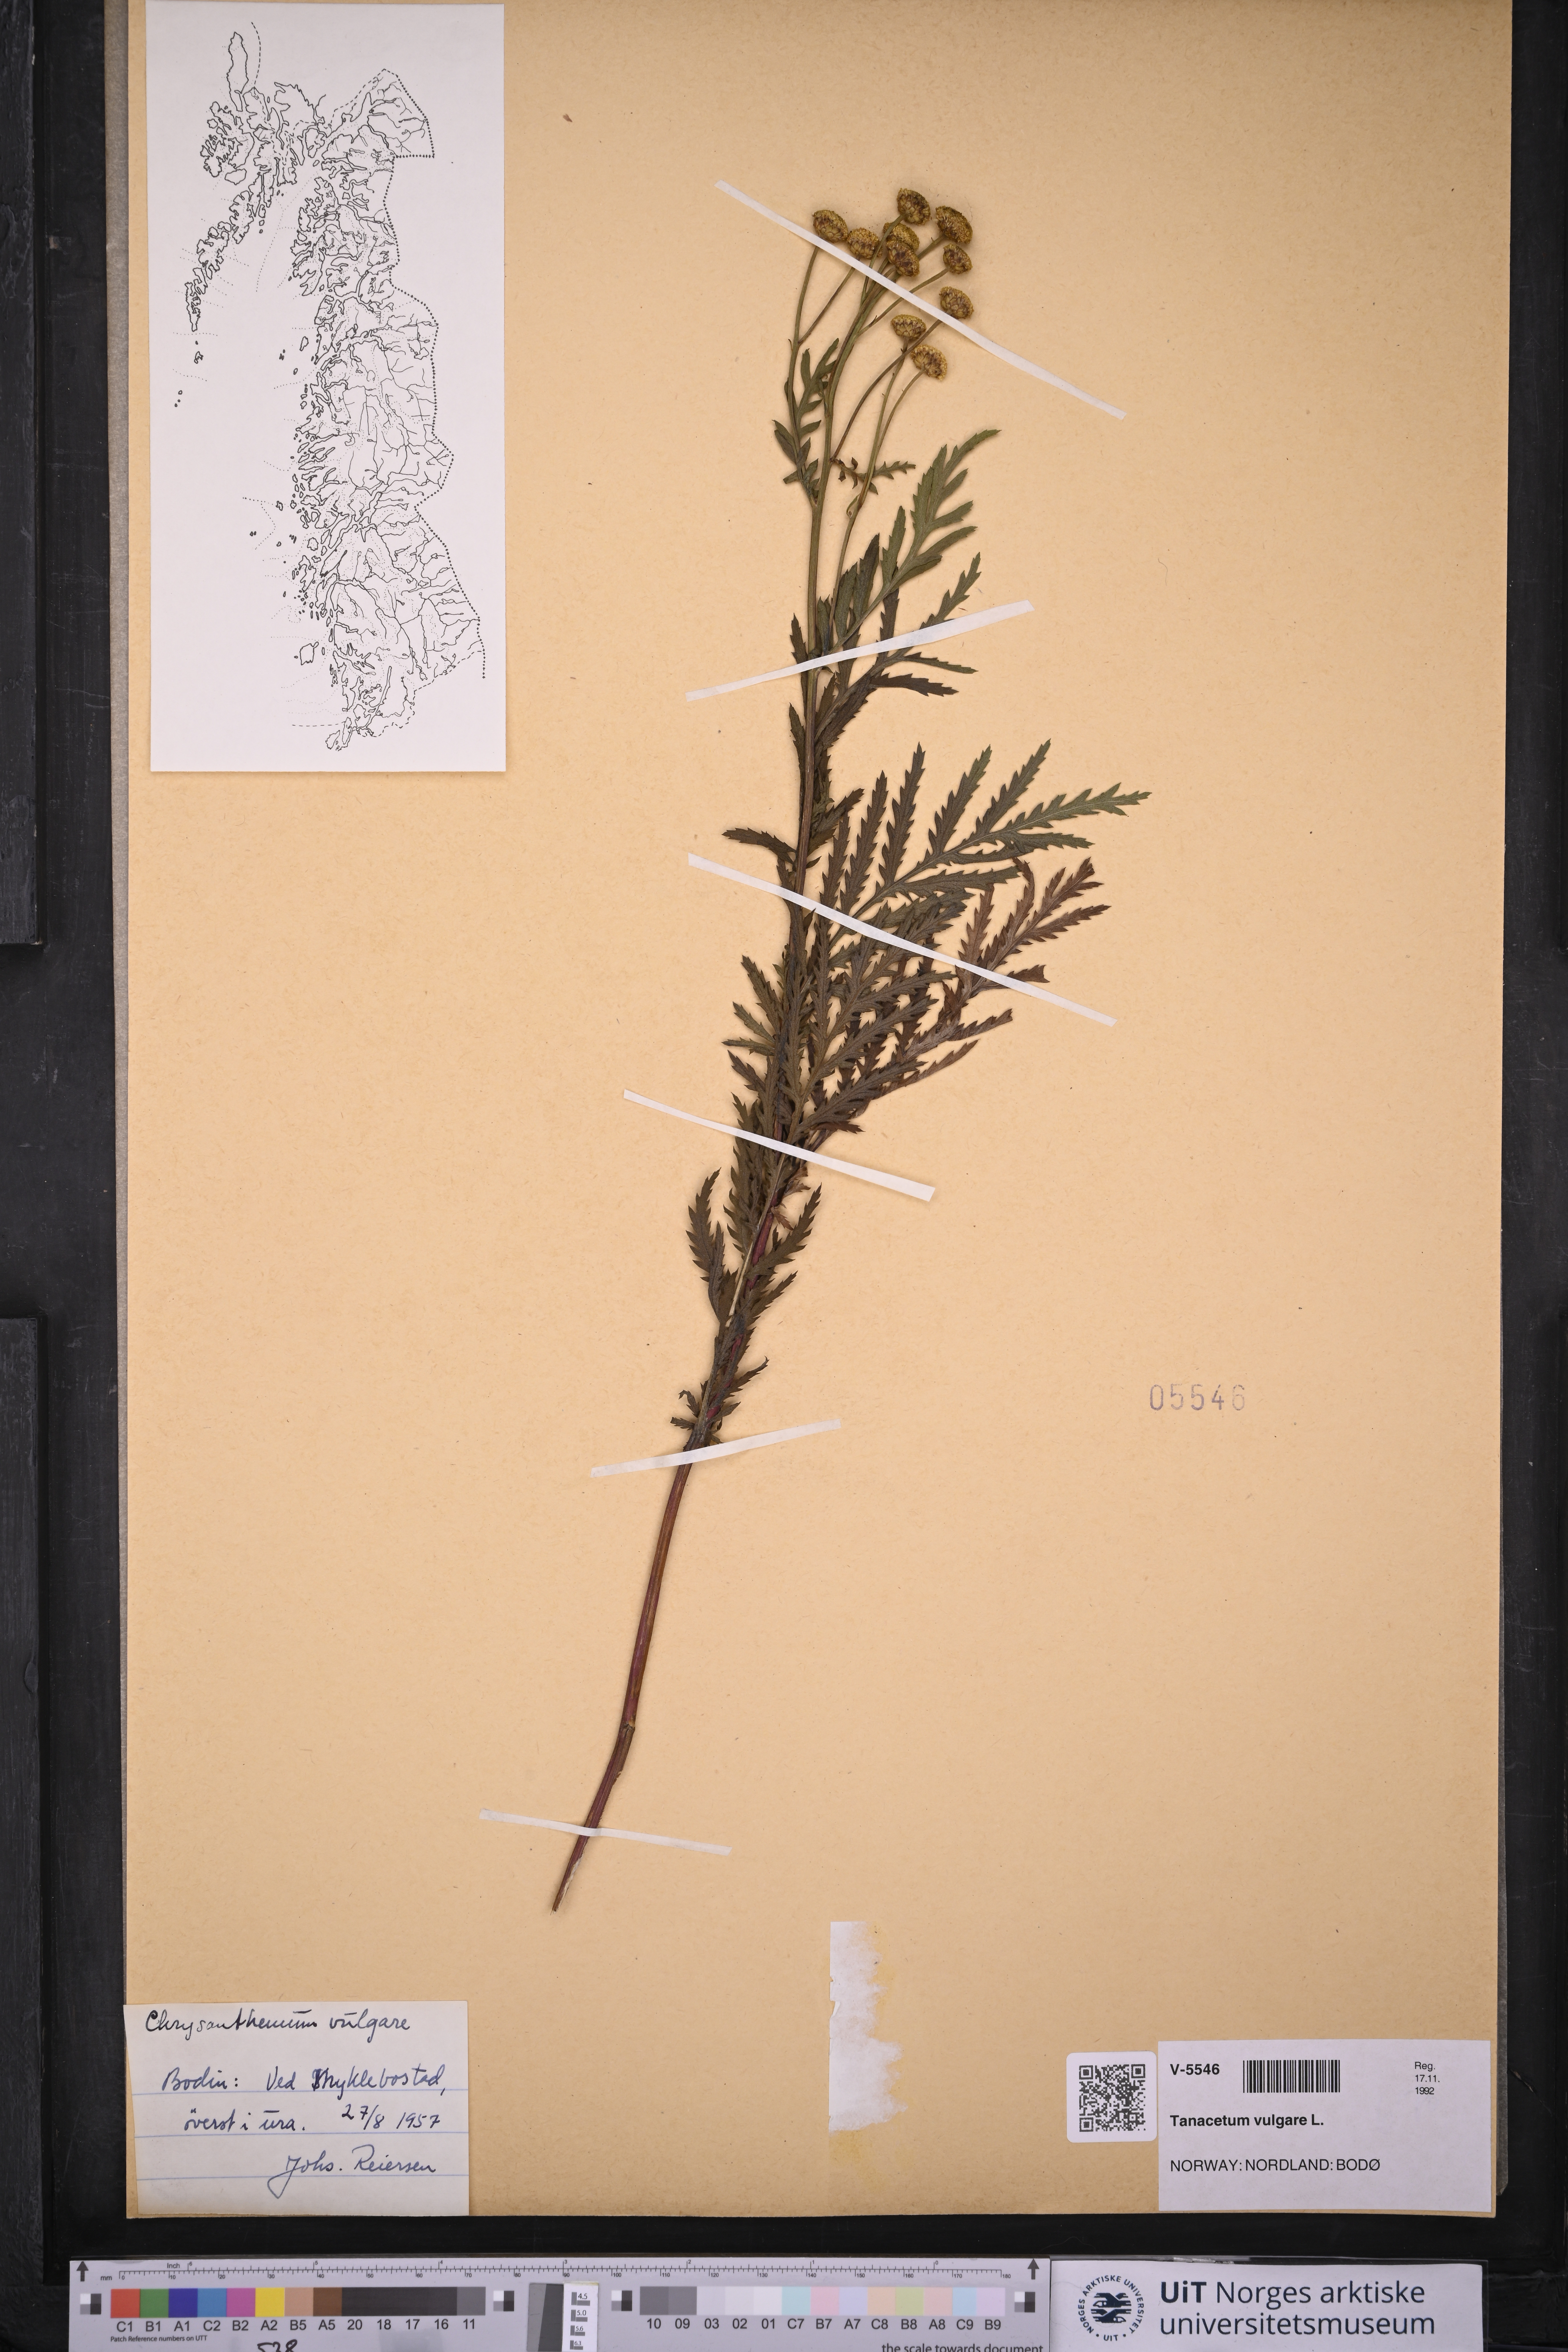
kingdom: Plantae
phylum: Tracheophyta
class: Magnoliopsida
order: Asterales
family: Asteraceae
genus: Tanacetum
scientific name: Tanacetum vulgare
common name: Common tansy
